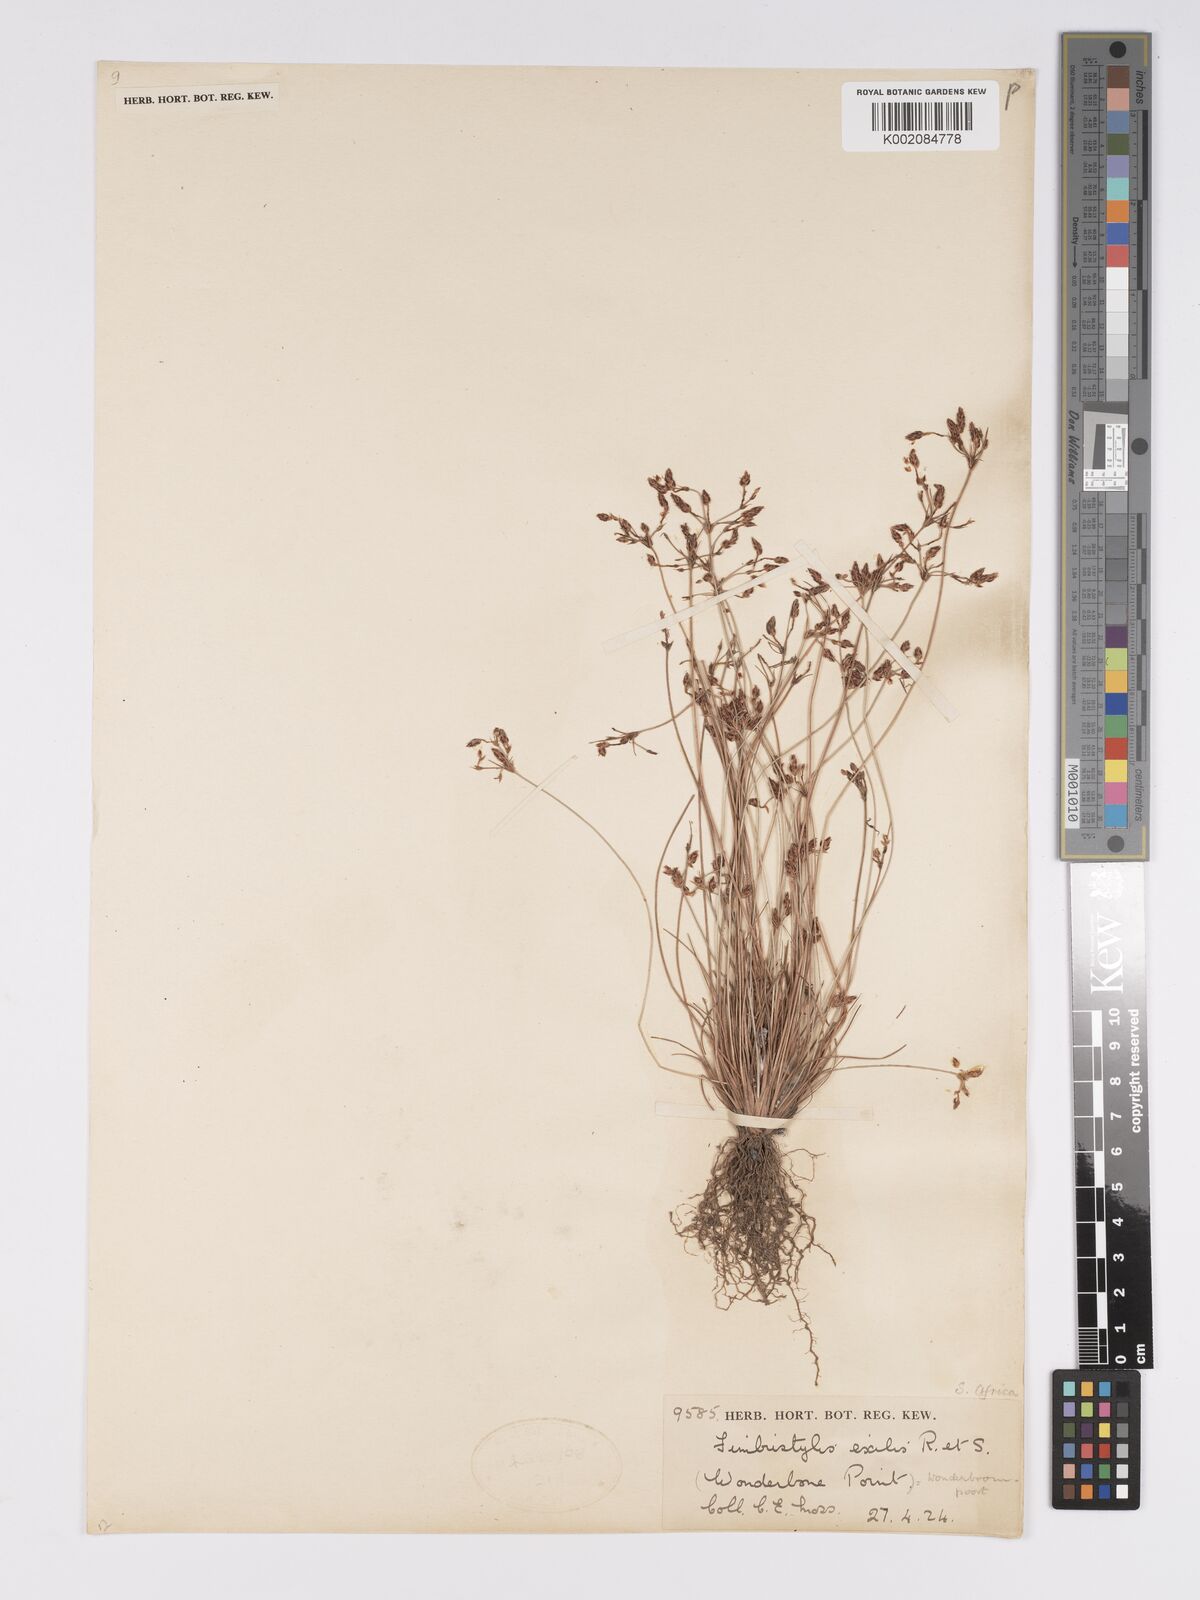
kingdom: Plantae
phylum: Tracheophyta
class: Liliopsida
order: Poales
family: Cyperaceae
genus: Bulbostylis
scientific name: Bulbostylis hispidula
